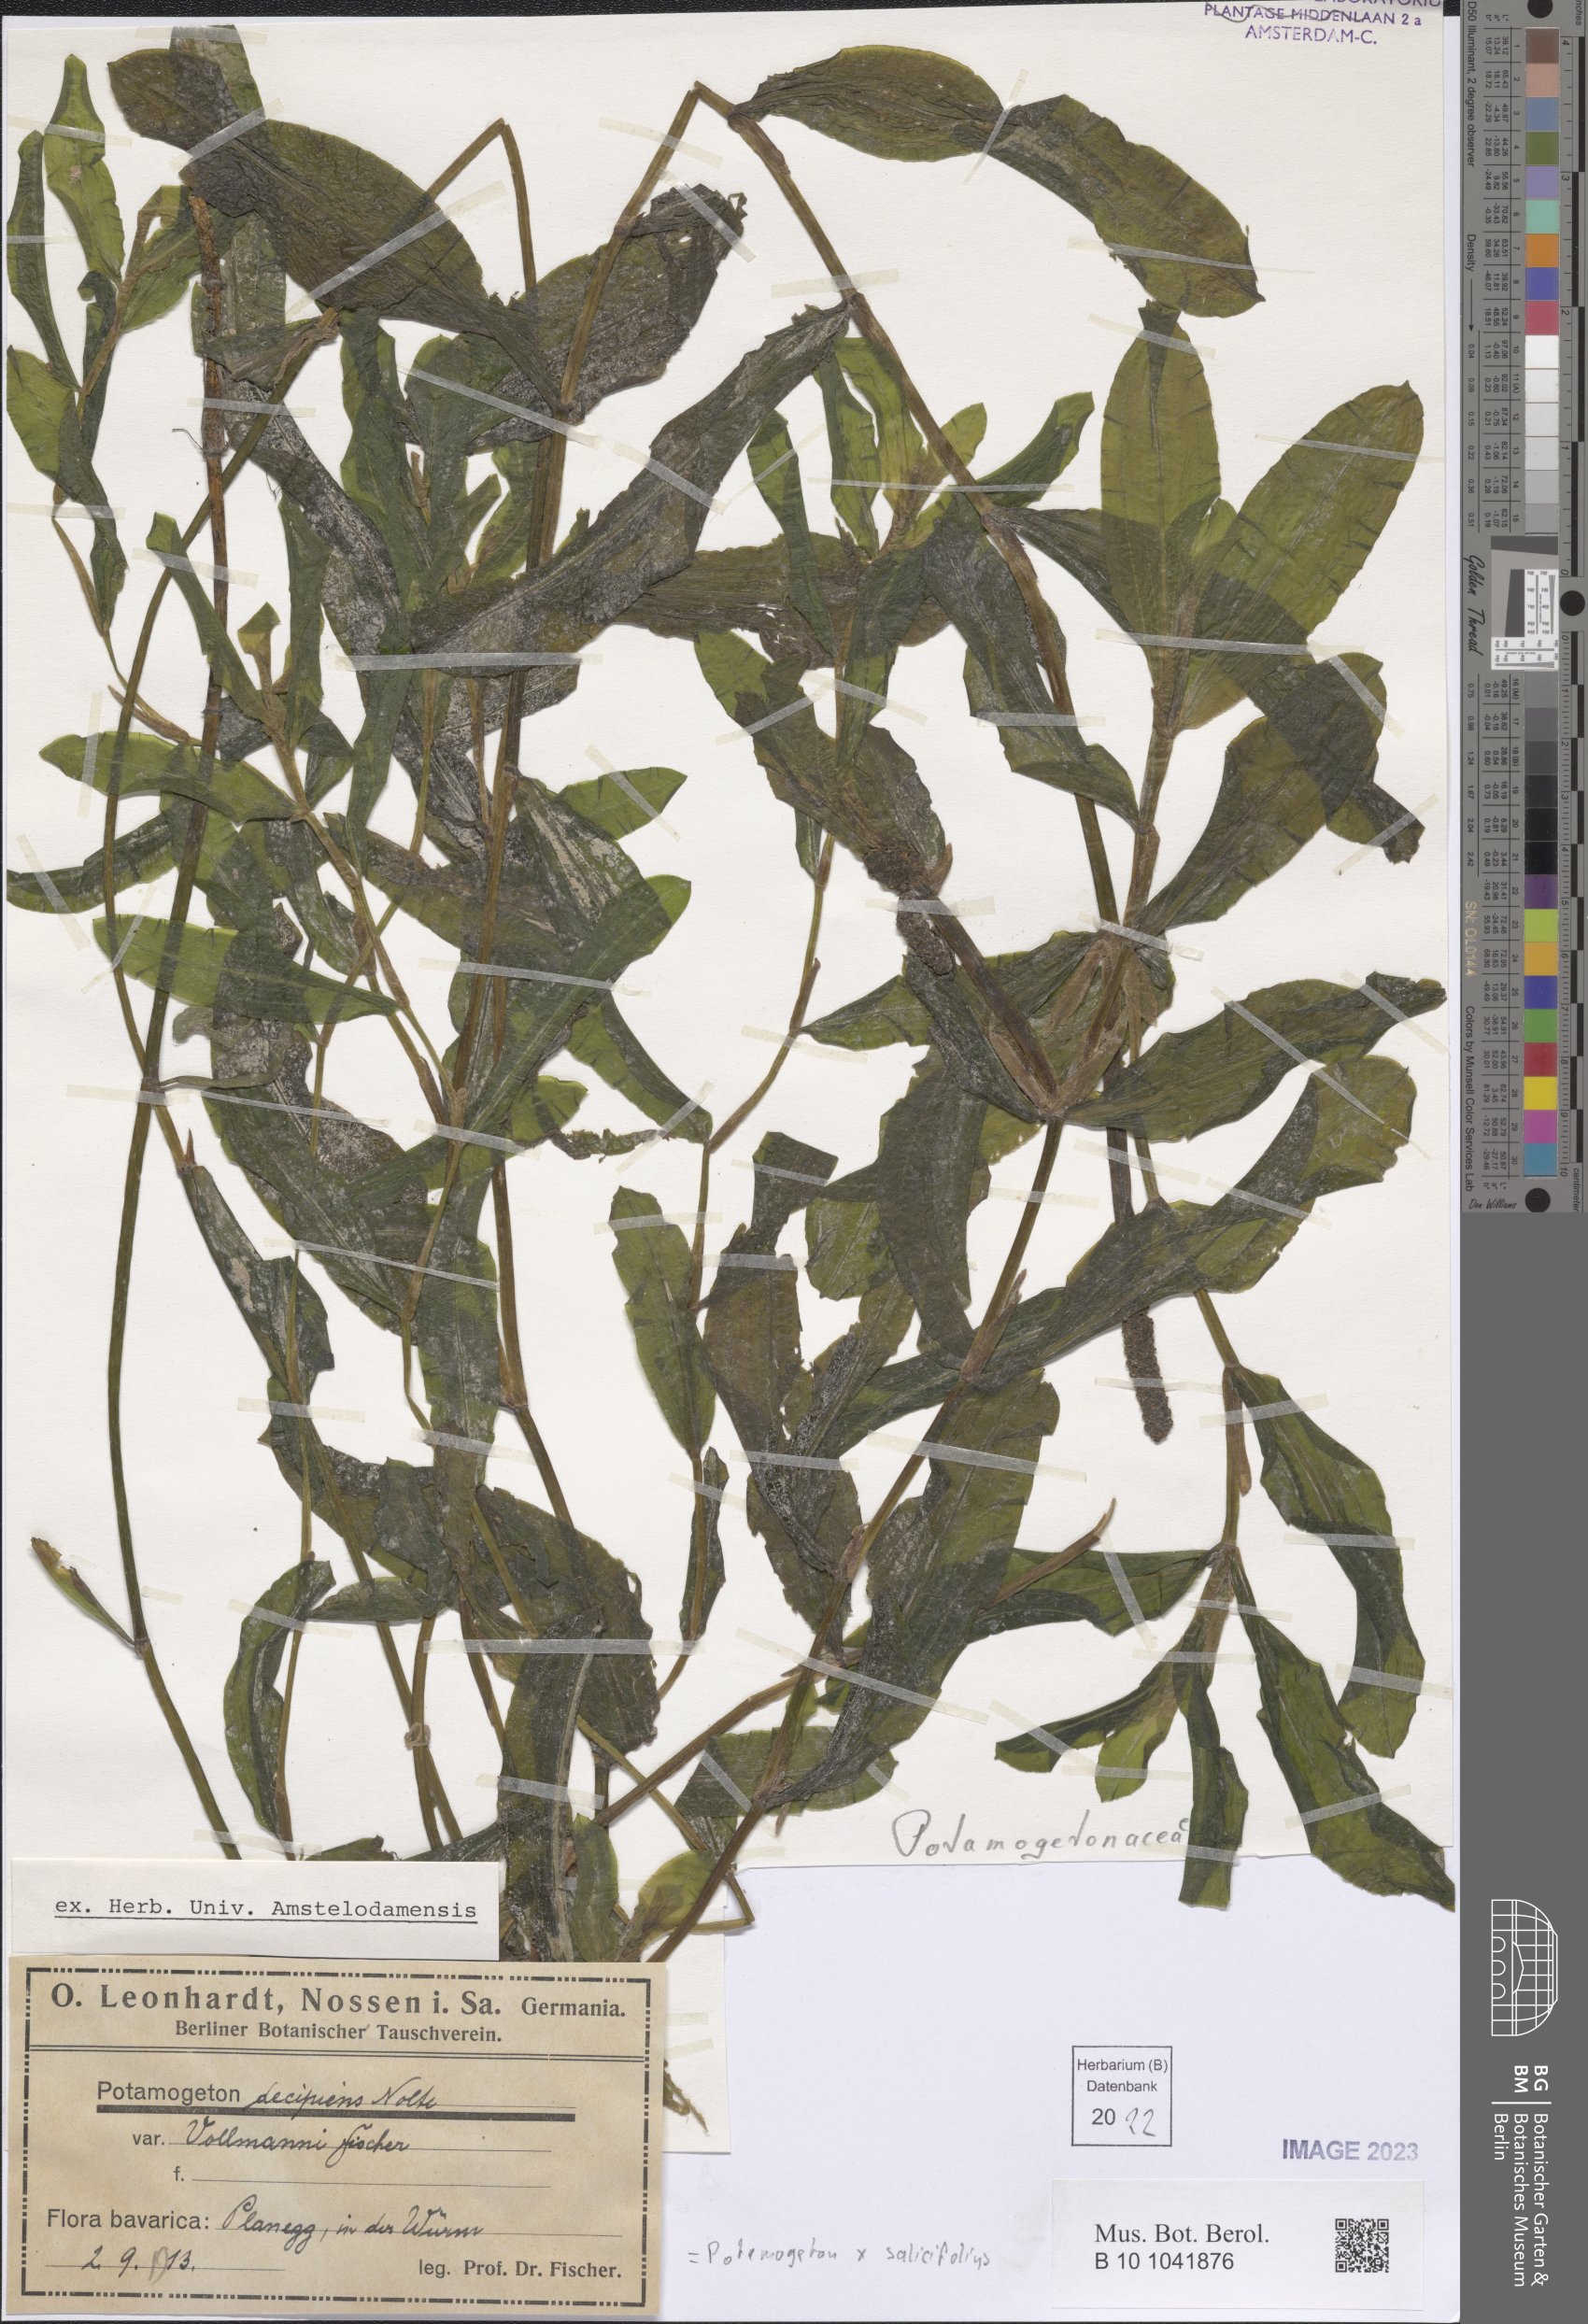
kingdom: Plantae
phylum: Tracheophyta
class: Liliopsida
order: Alismatales
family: Potamogetonaceae
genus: Potamogeton
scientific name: Potamogeton salicifolius
